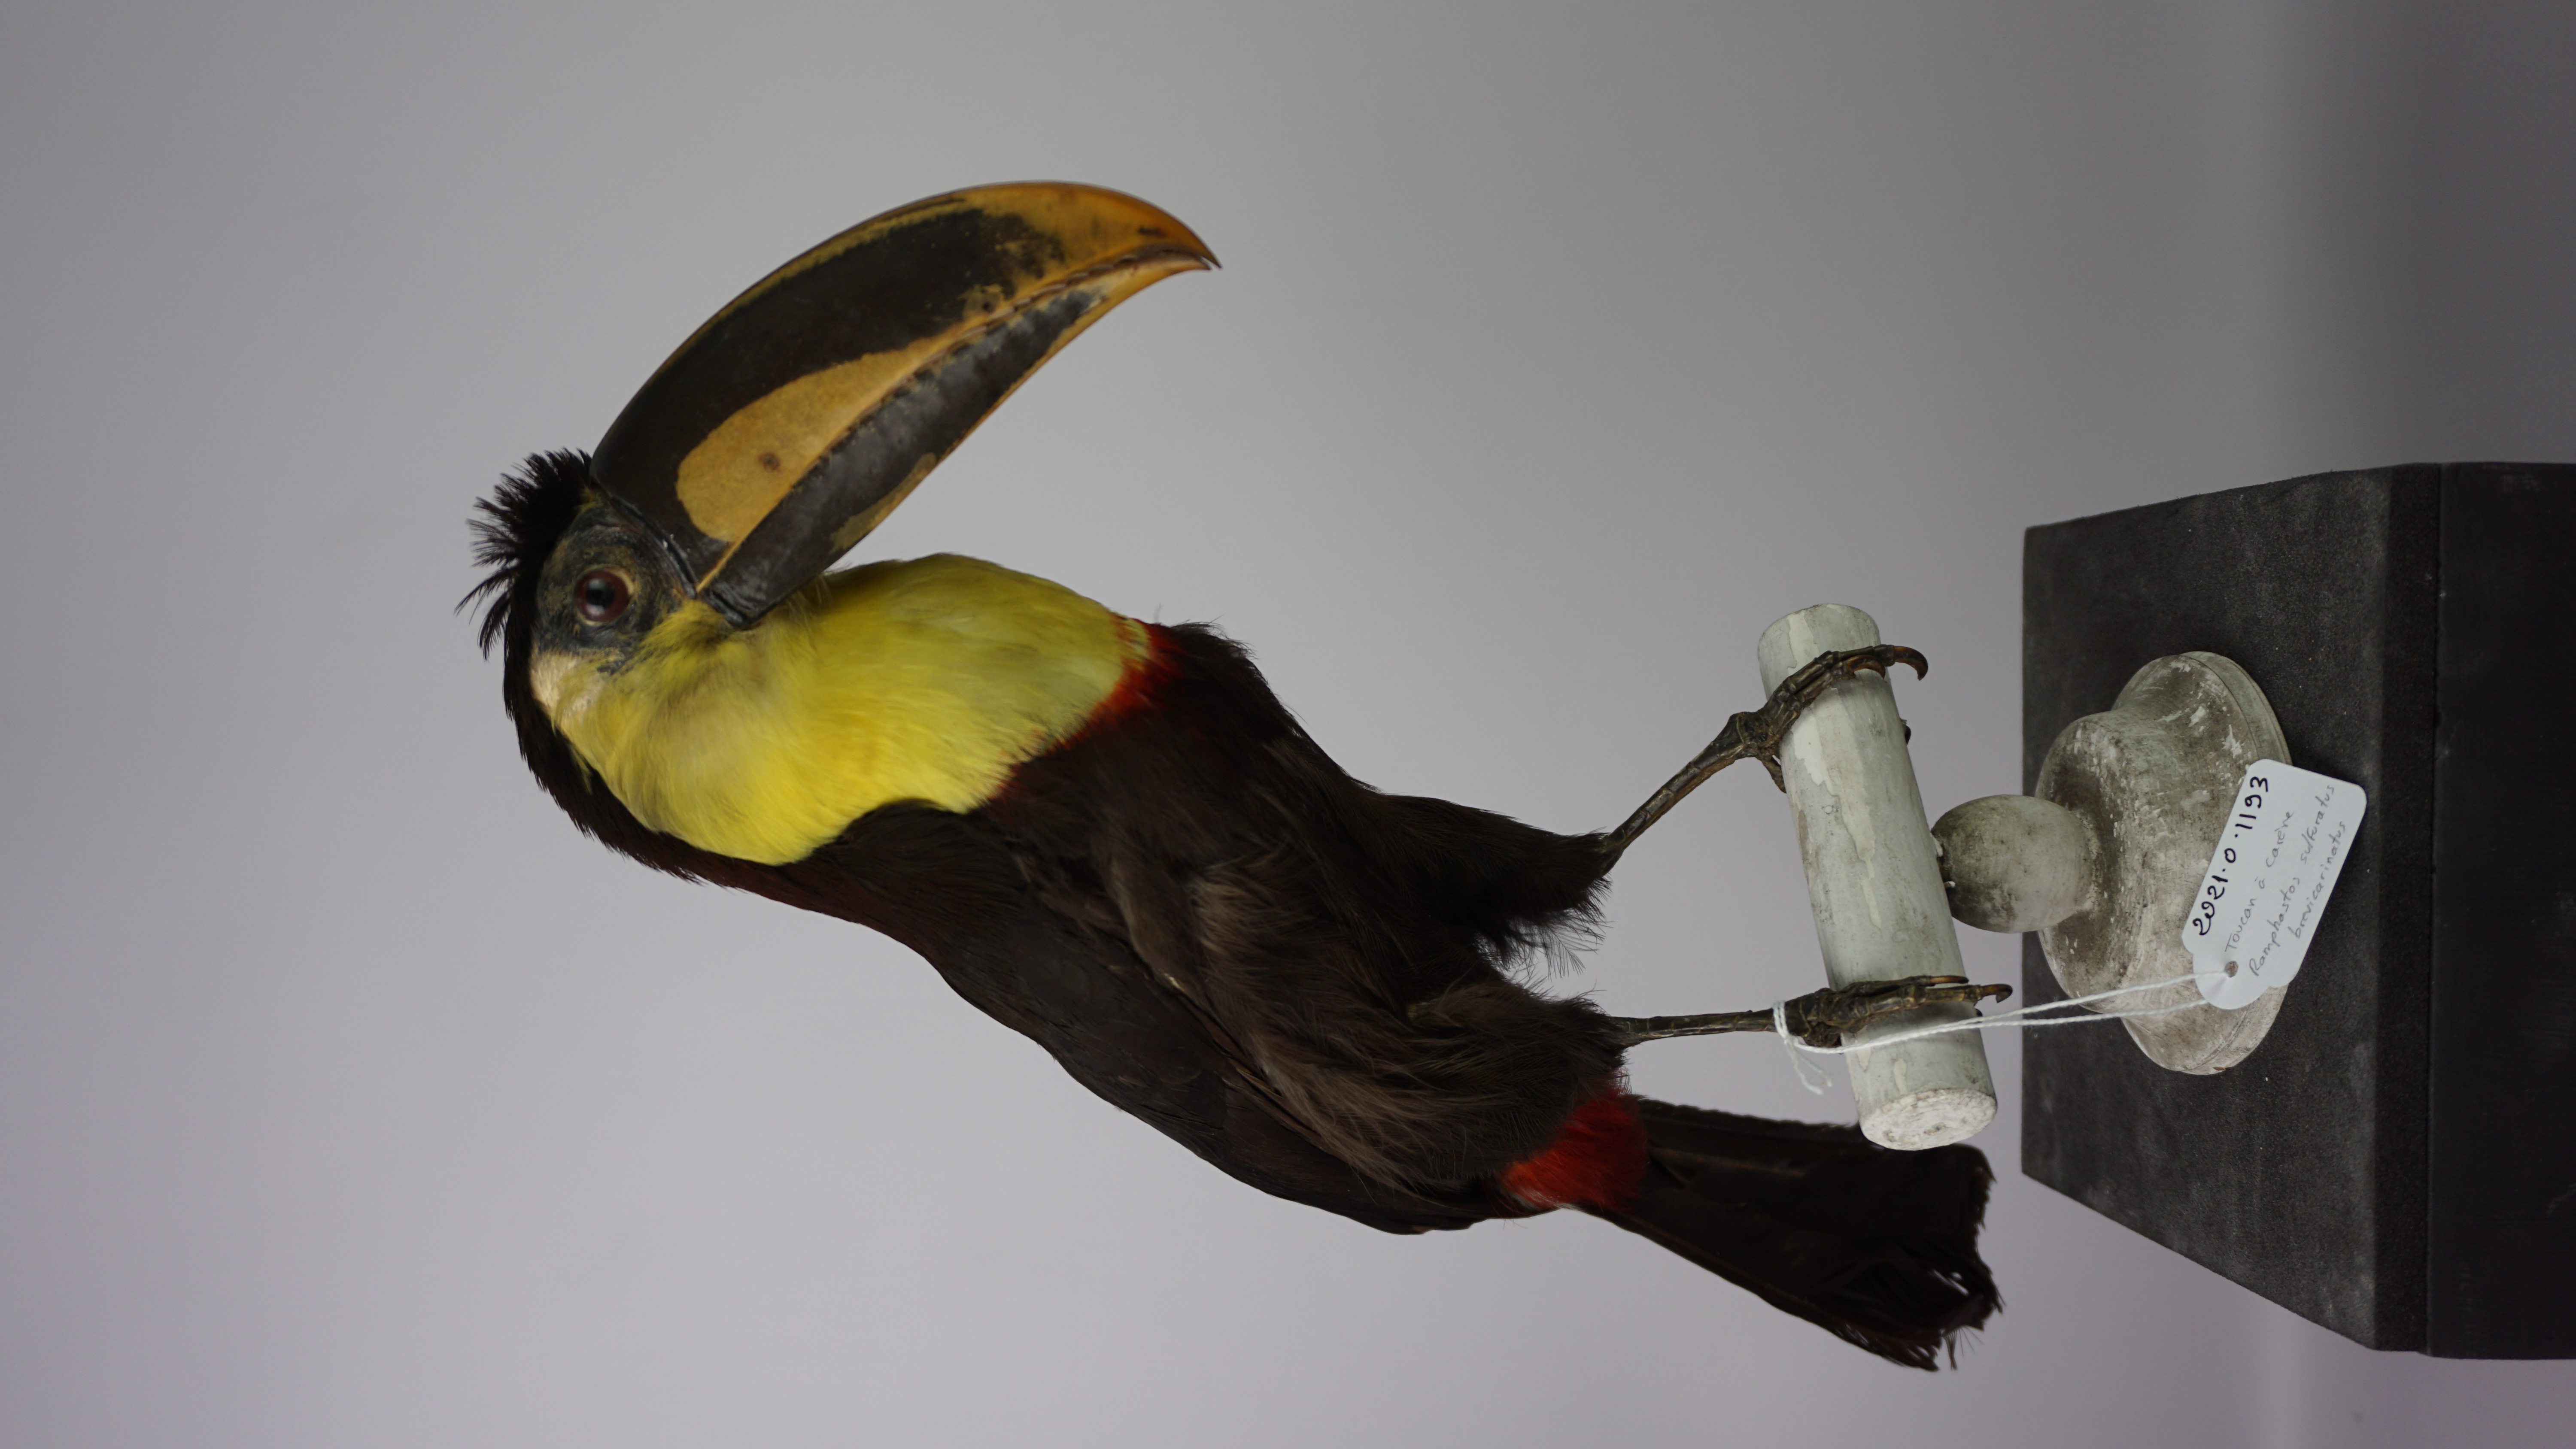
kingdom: Animalia
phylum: Chordata
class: Aves
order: Piciformes
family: Ramphastidae
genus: Ramphastos
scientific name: Ramphastos sulfuratus
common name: Keel-billed toucan
